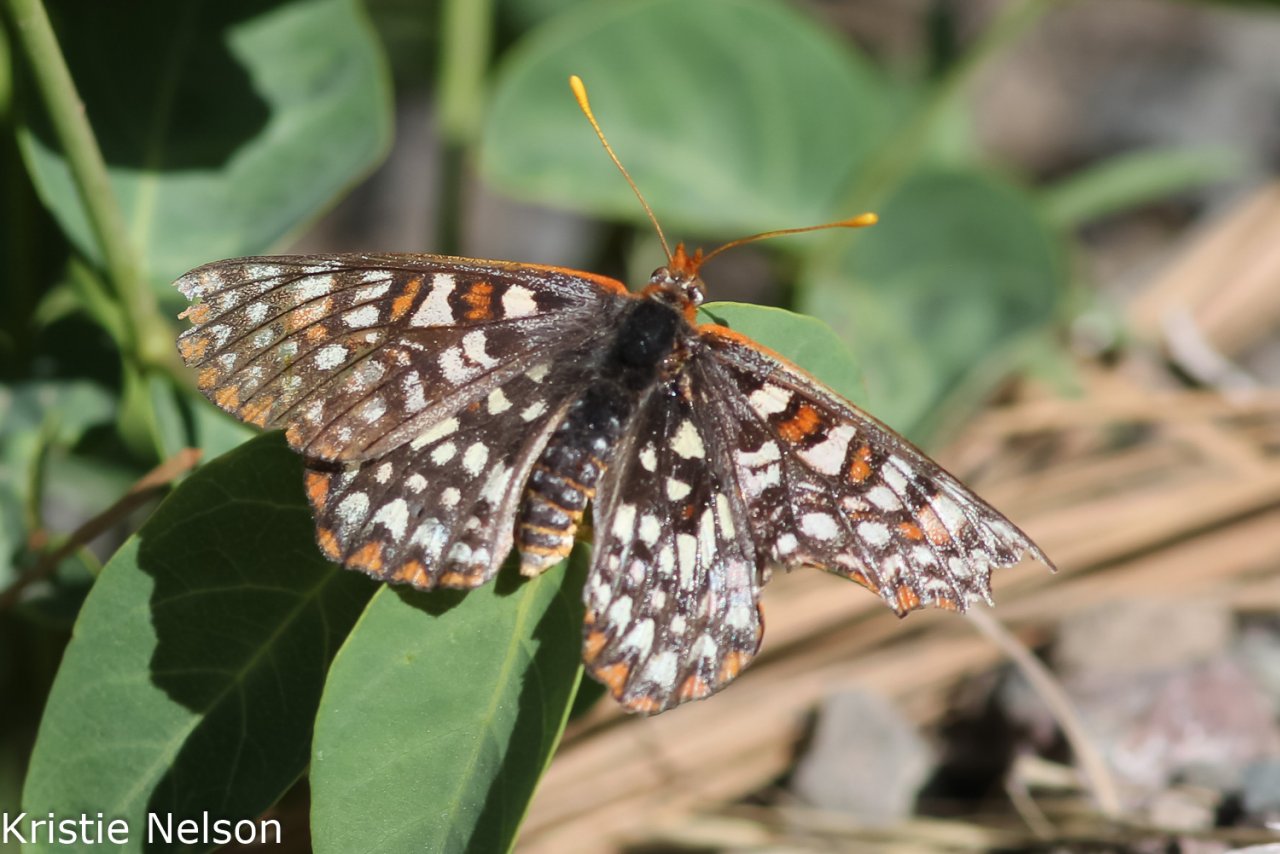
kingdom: Animalia
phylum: Arthropoda
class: Insecta
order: Lepidoptera
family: Nymphalidae
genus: Occidryas
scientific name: Occidryas chalcedona
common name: Chalcedon Checkerspot
